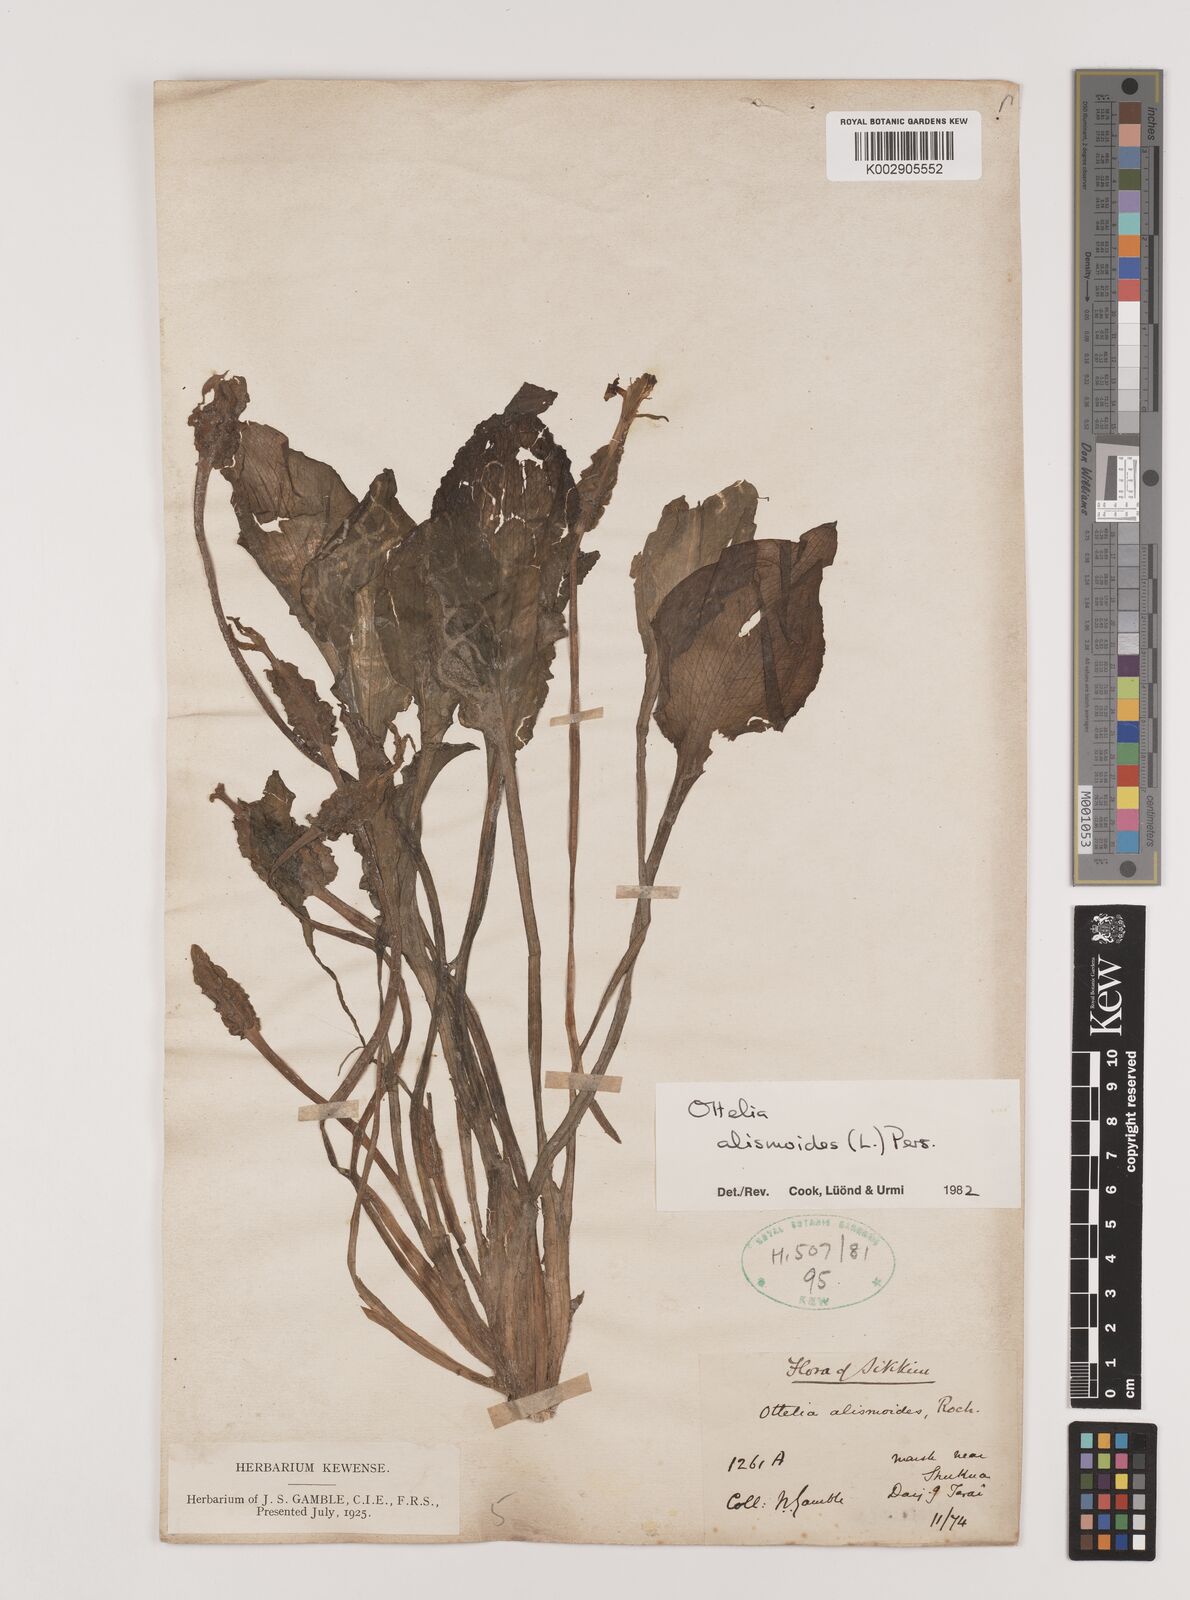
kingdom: Plantae
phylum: Tracheophyta
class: Liliopsida
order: Alismatales
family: Hydrocharitaceae
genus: Ottelia
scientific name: Ottelia alismoides
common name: Duck-lettuce
